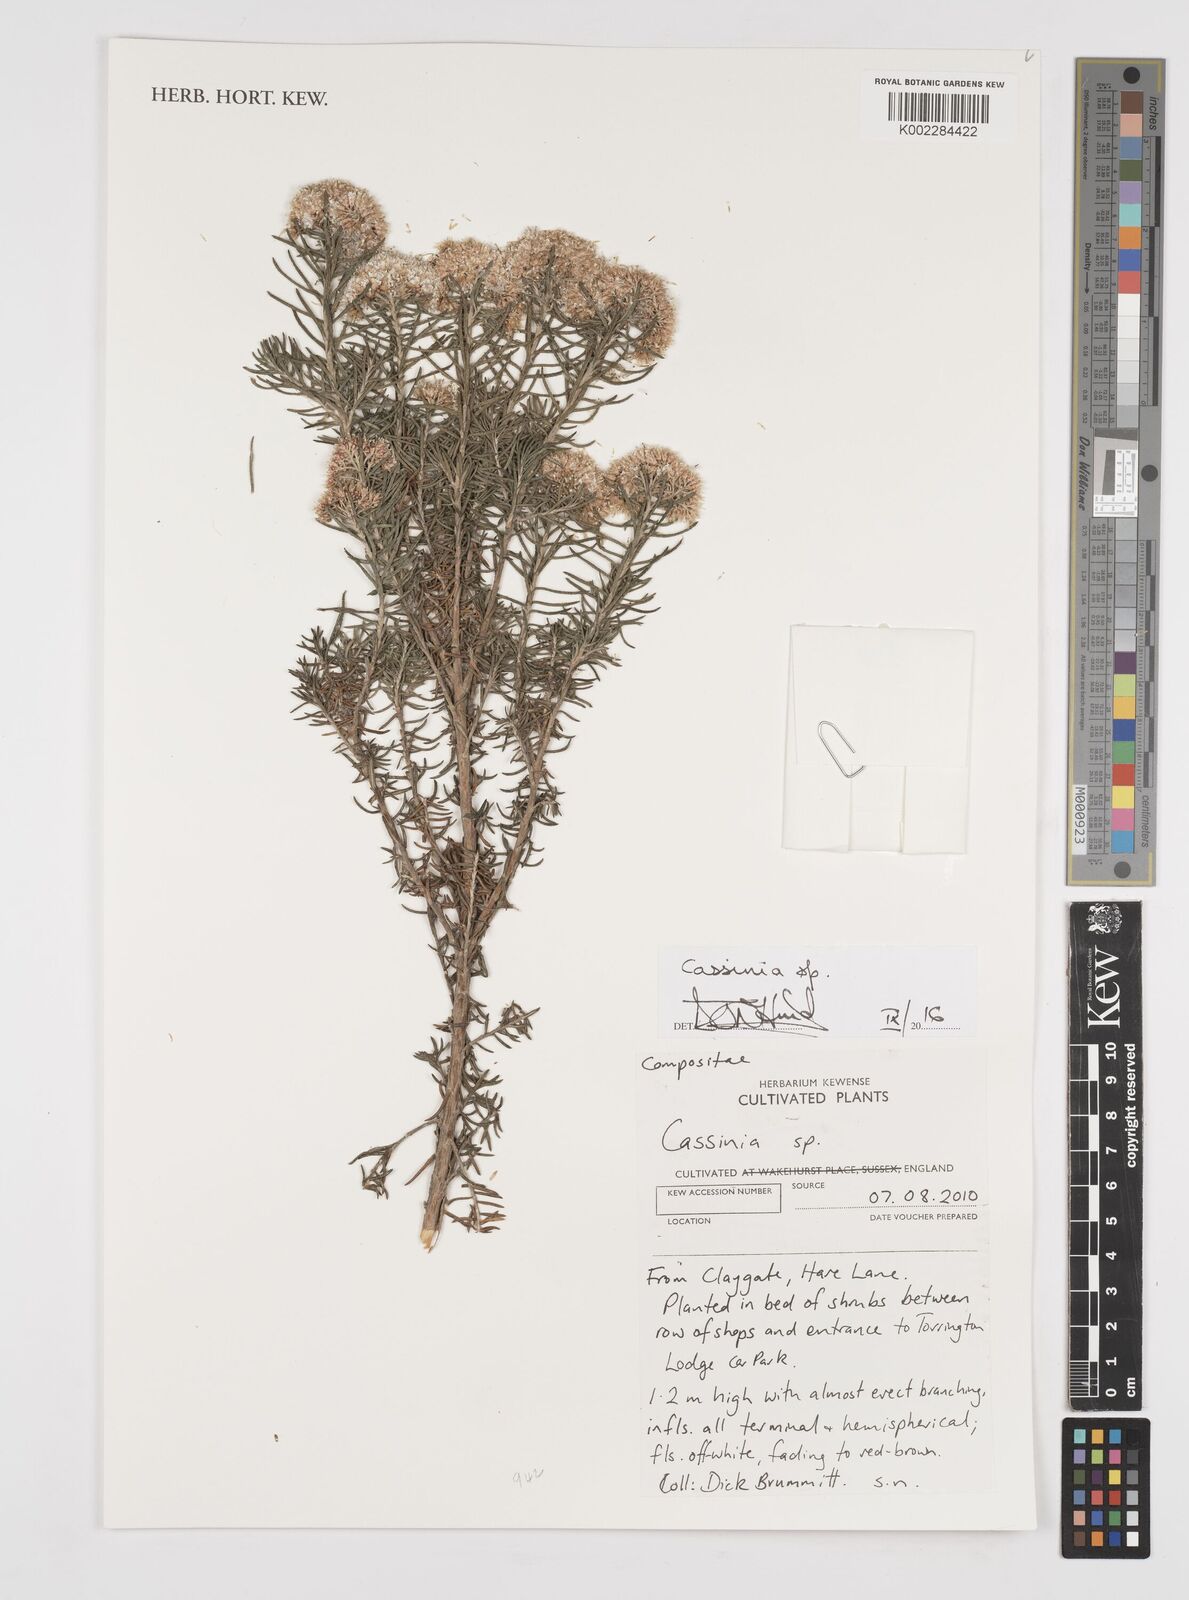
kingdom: Plantae
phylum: Tracheophyta
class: Magnoliopsida
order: Asterales
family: Asteraceae
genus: Cassinia
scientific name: Cassinia
